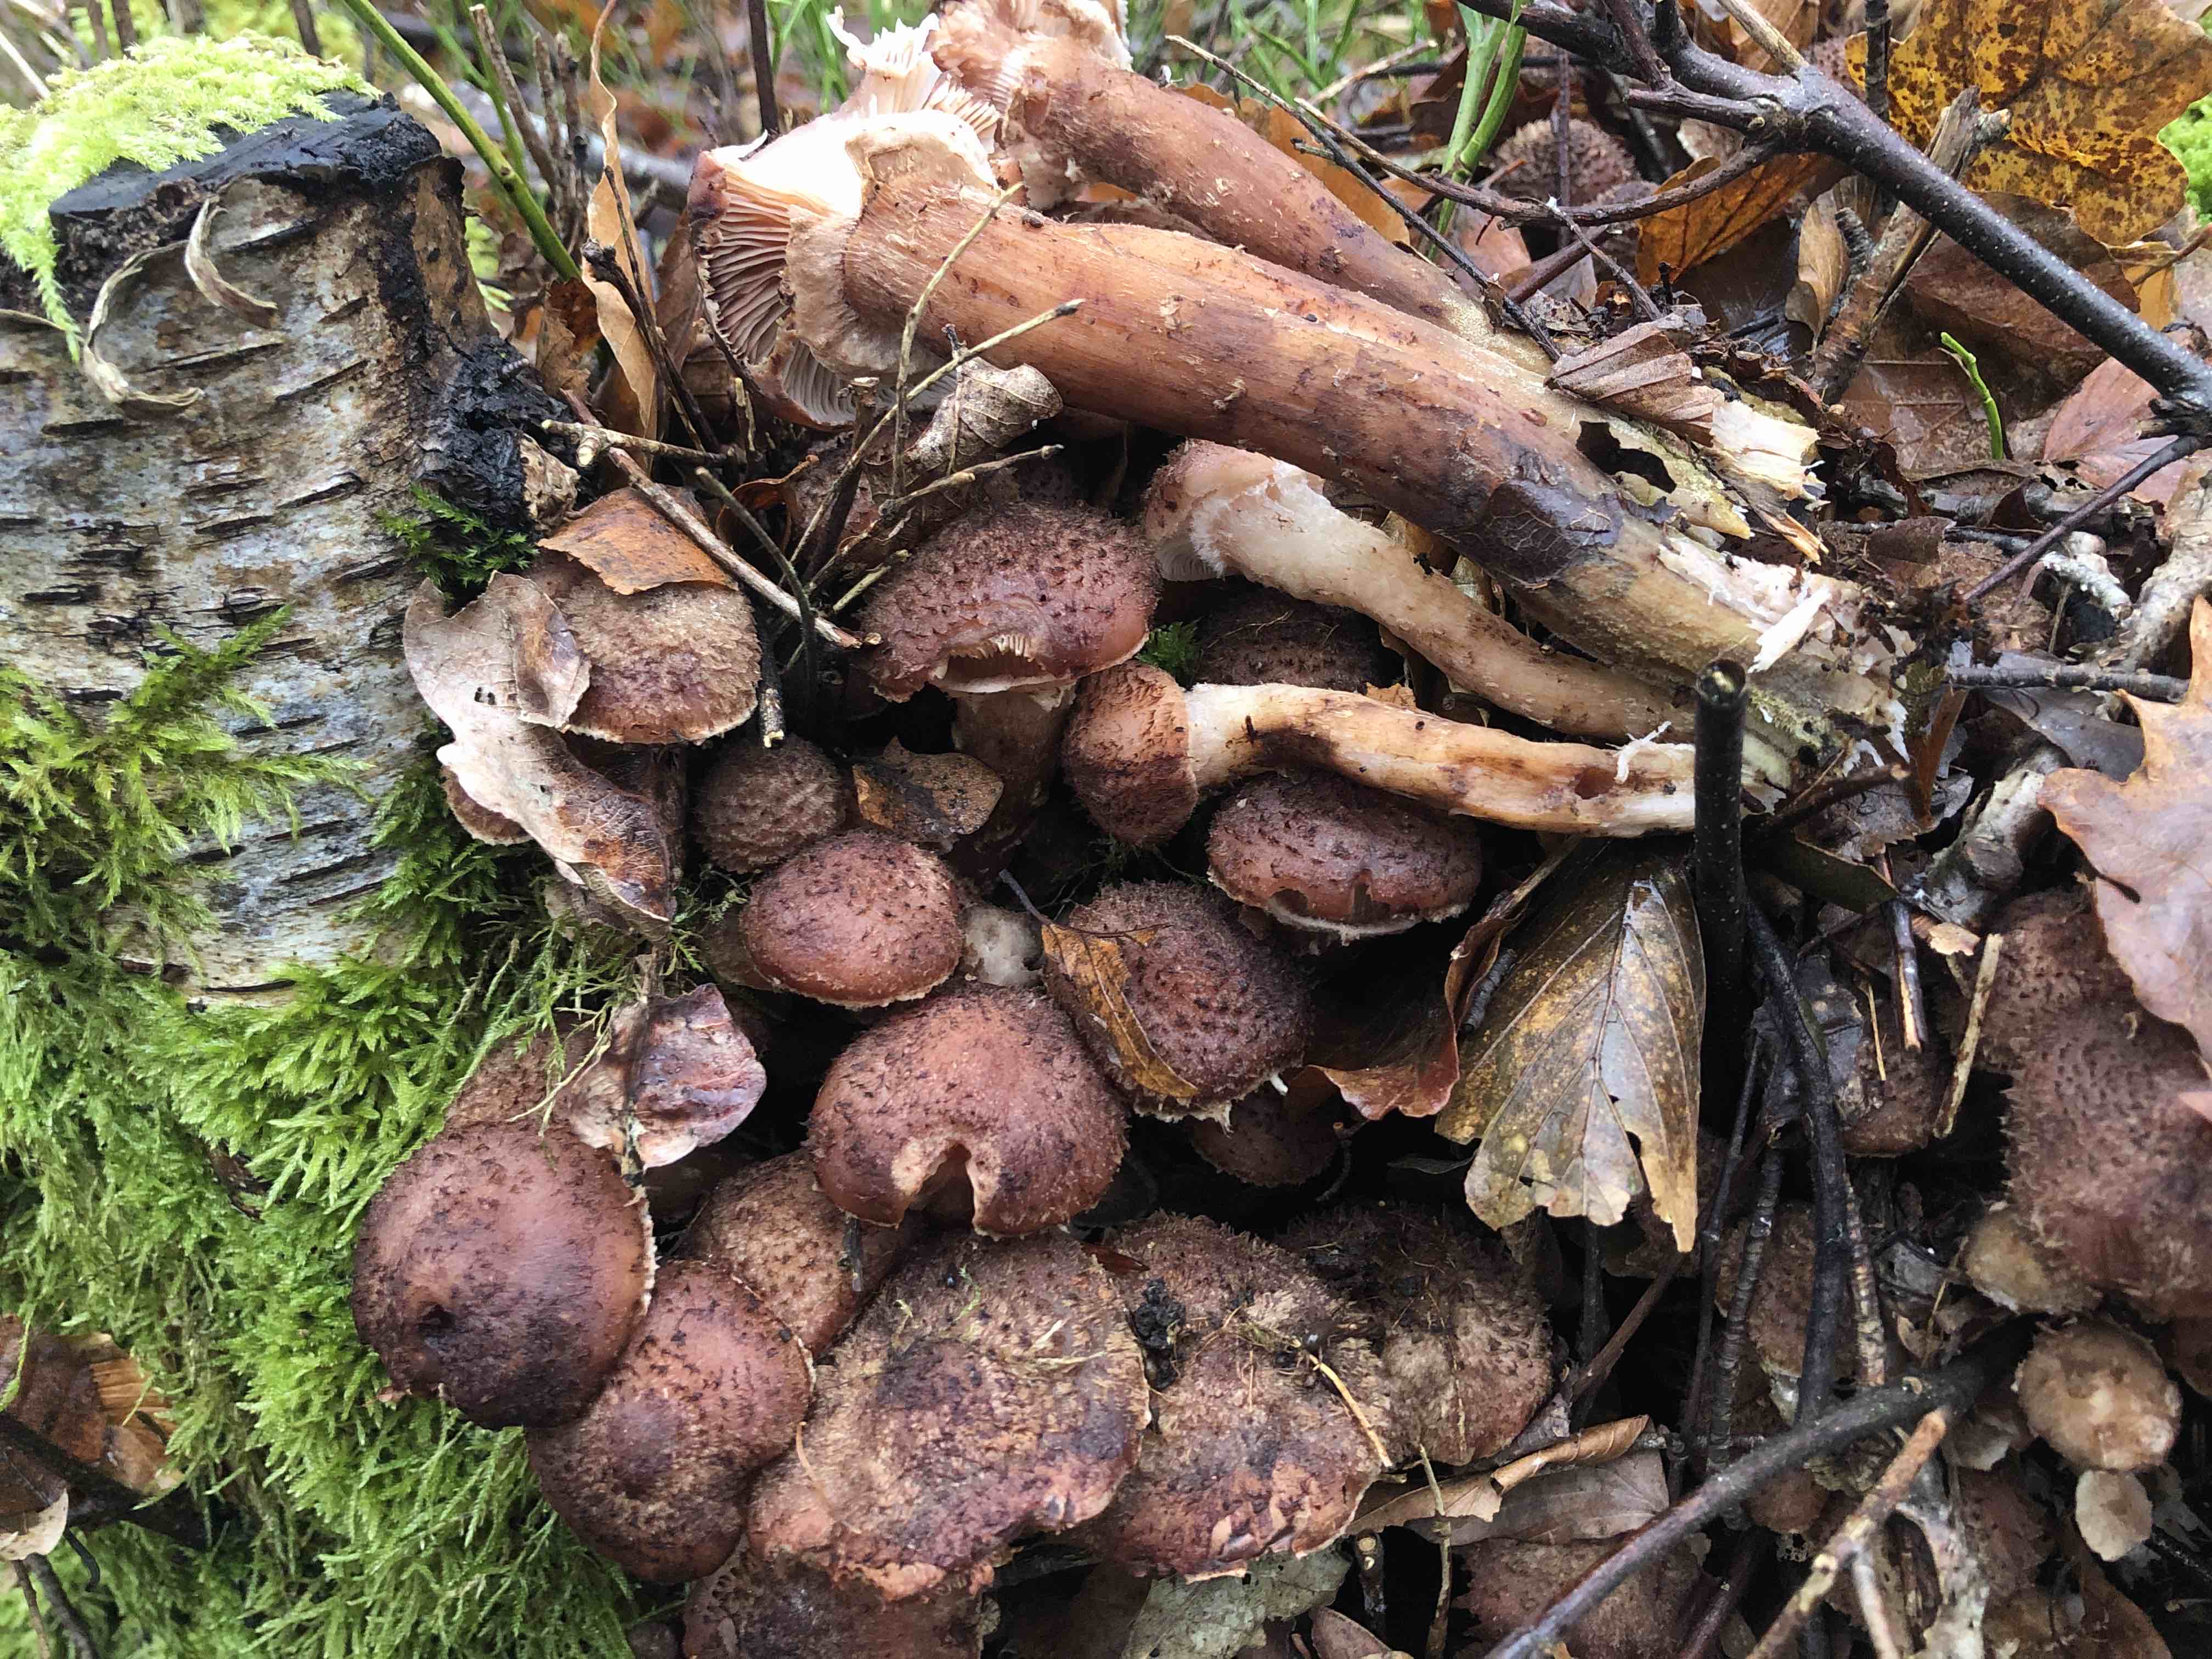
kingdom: Fungi
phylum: Basidiomycota
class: Agaricomycetes
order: Agaricales
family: Physalacriaceae
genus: Armillaria
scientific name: Armillaria ostoyae
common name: mørk honningsvamp
